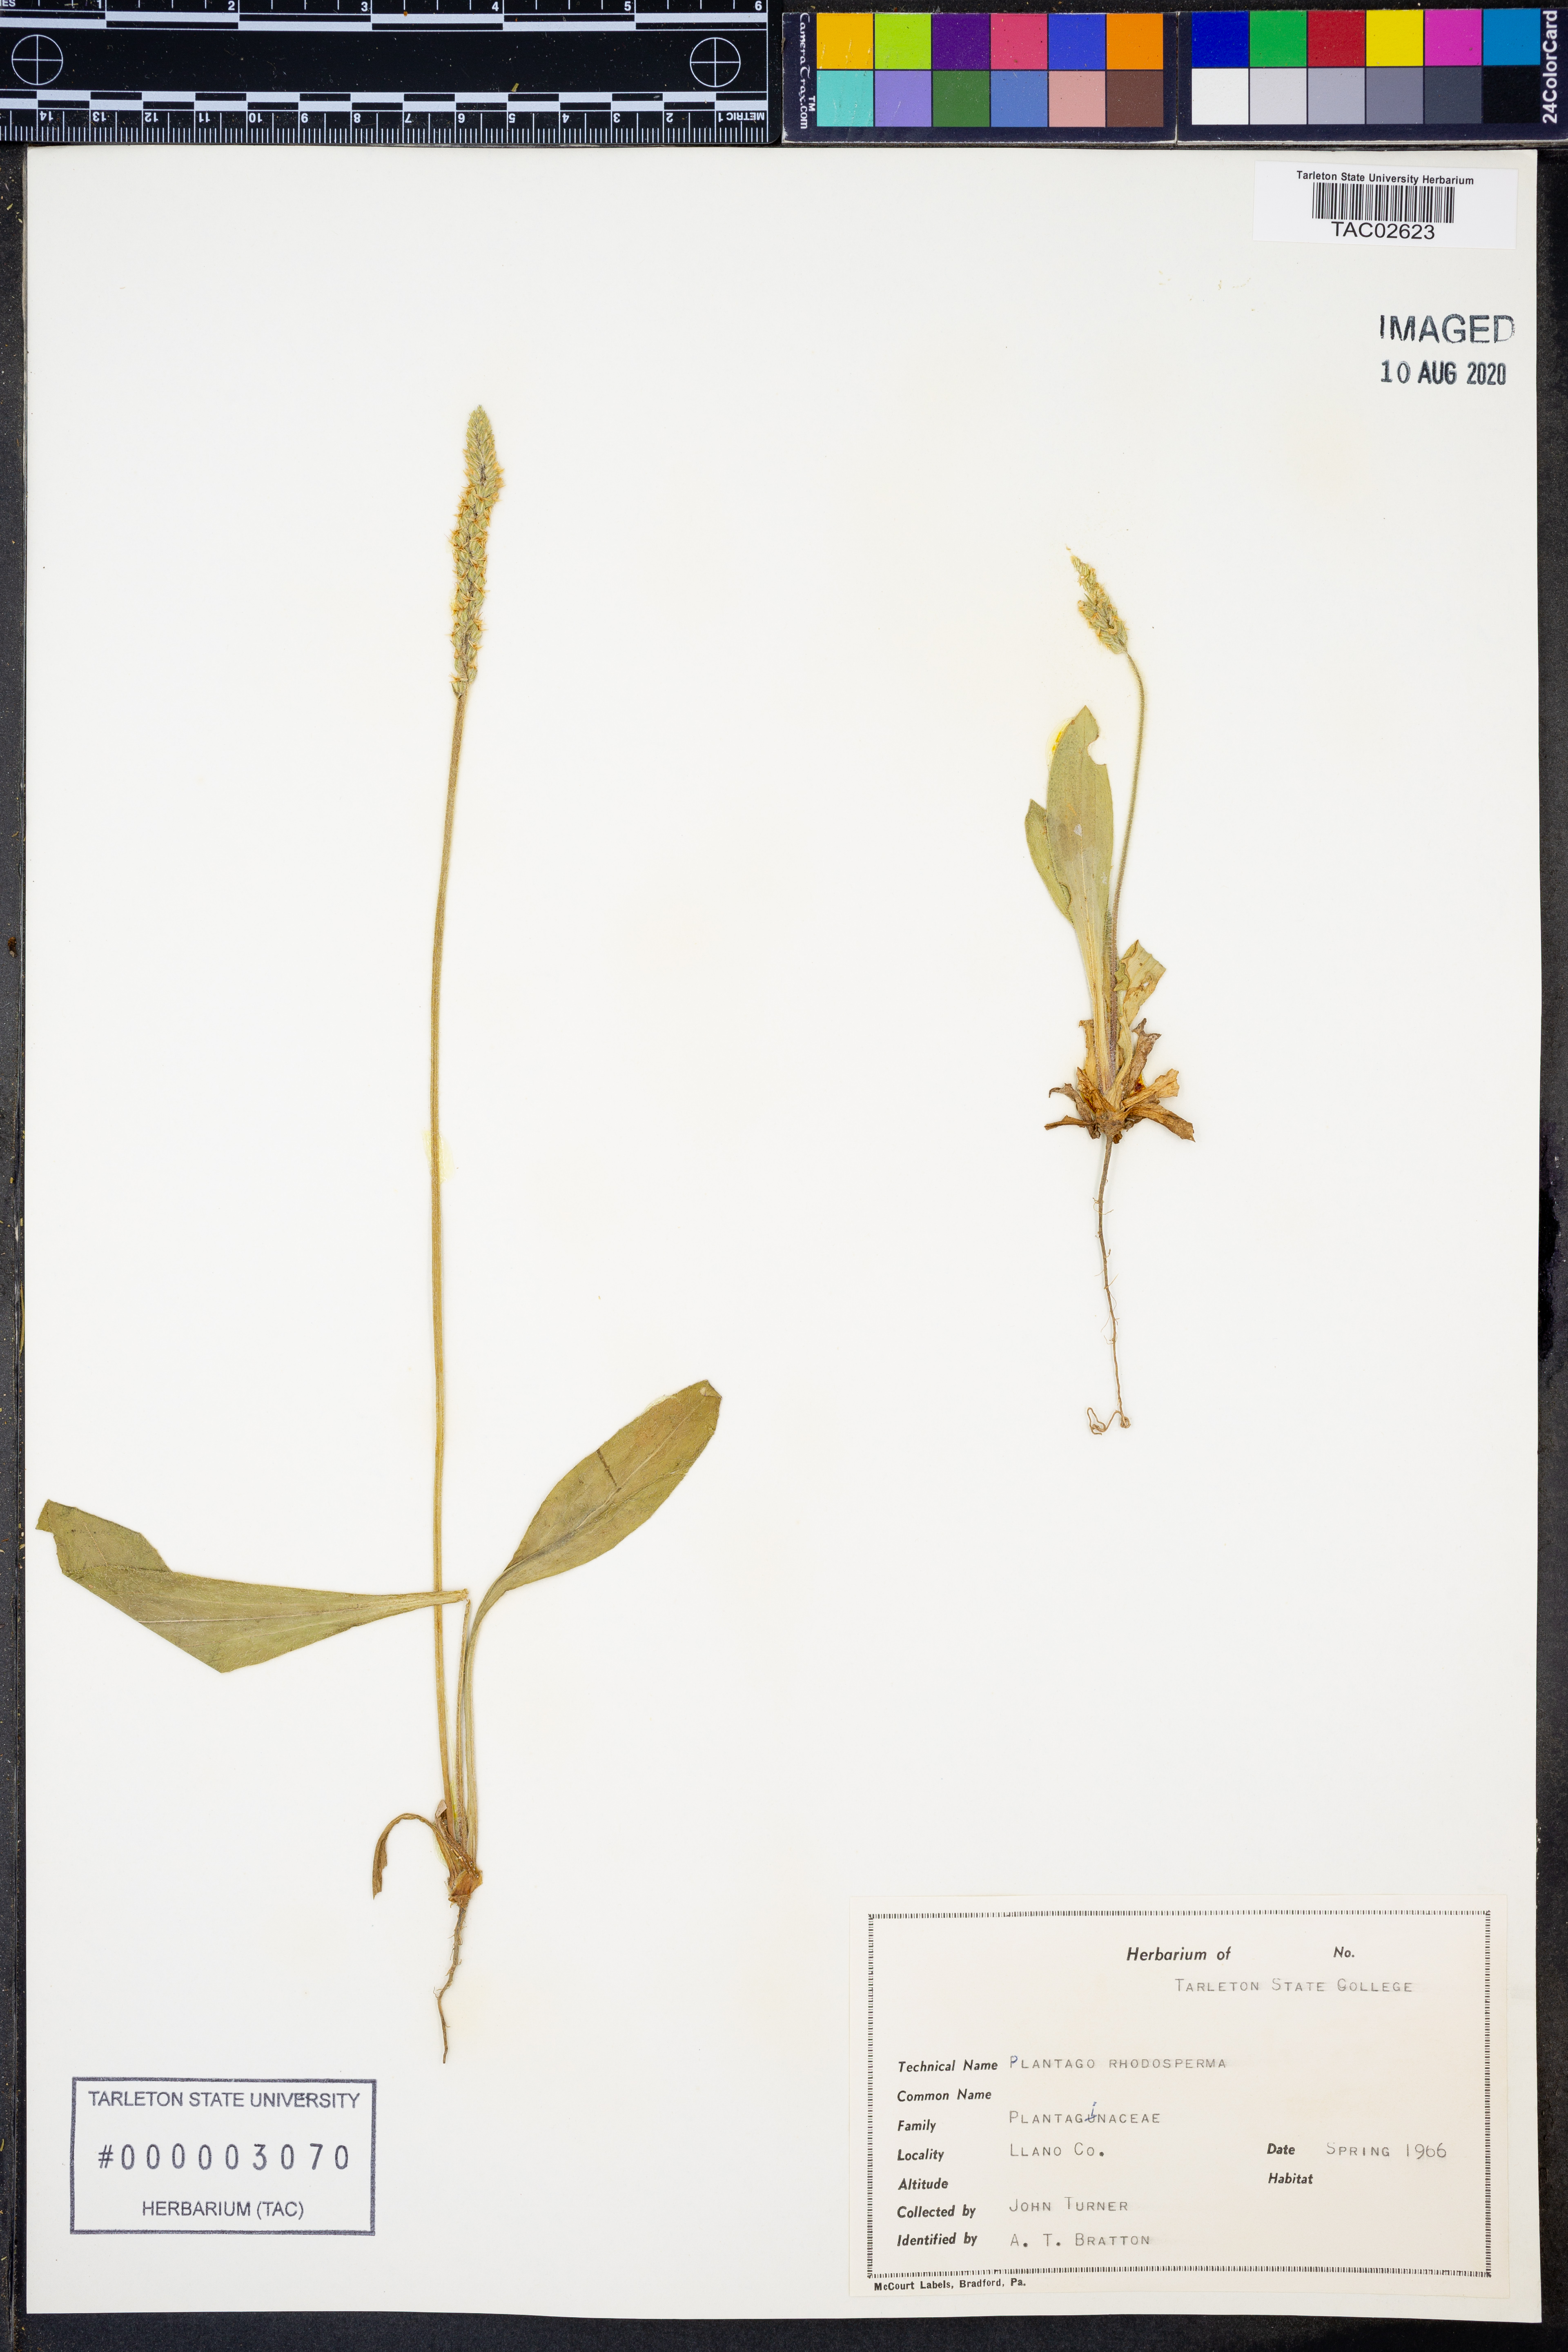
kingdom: Plantae
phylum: Tracheophyta
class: Magnoliopsida
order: Lamiales
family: Plantaginaceae
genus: Plantago
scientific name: Plantago rhodosperma
